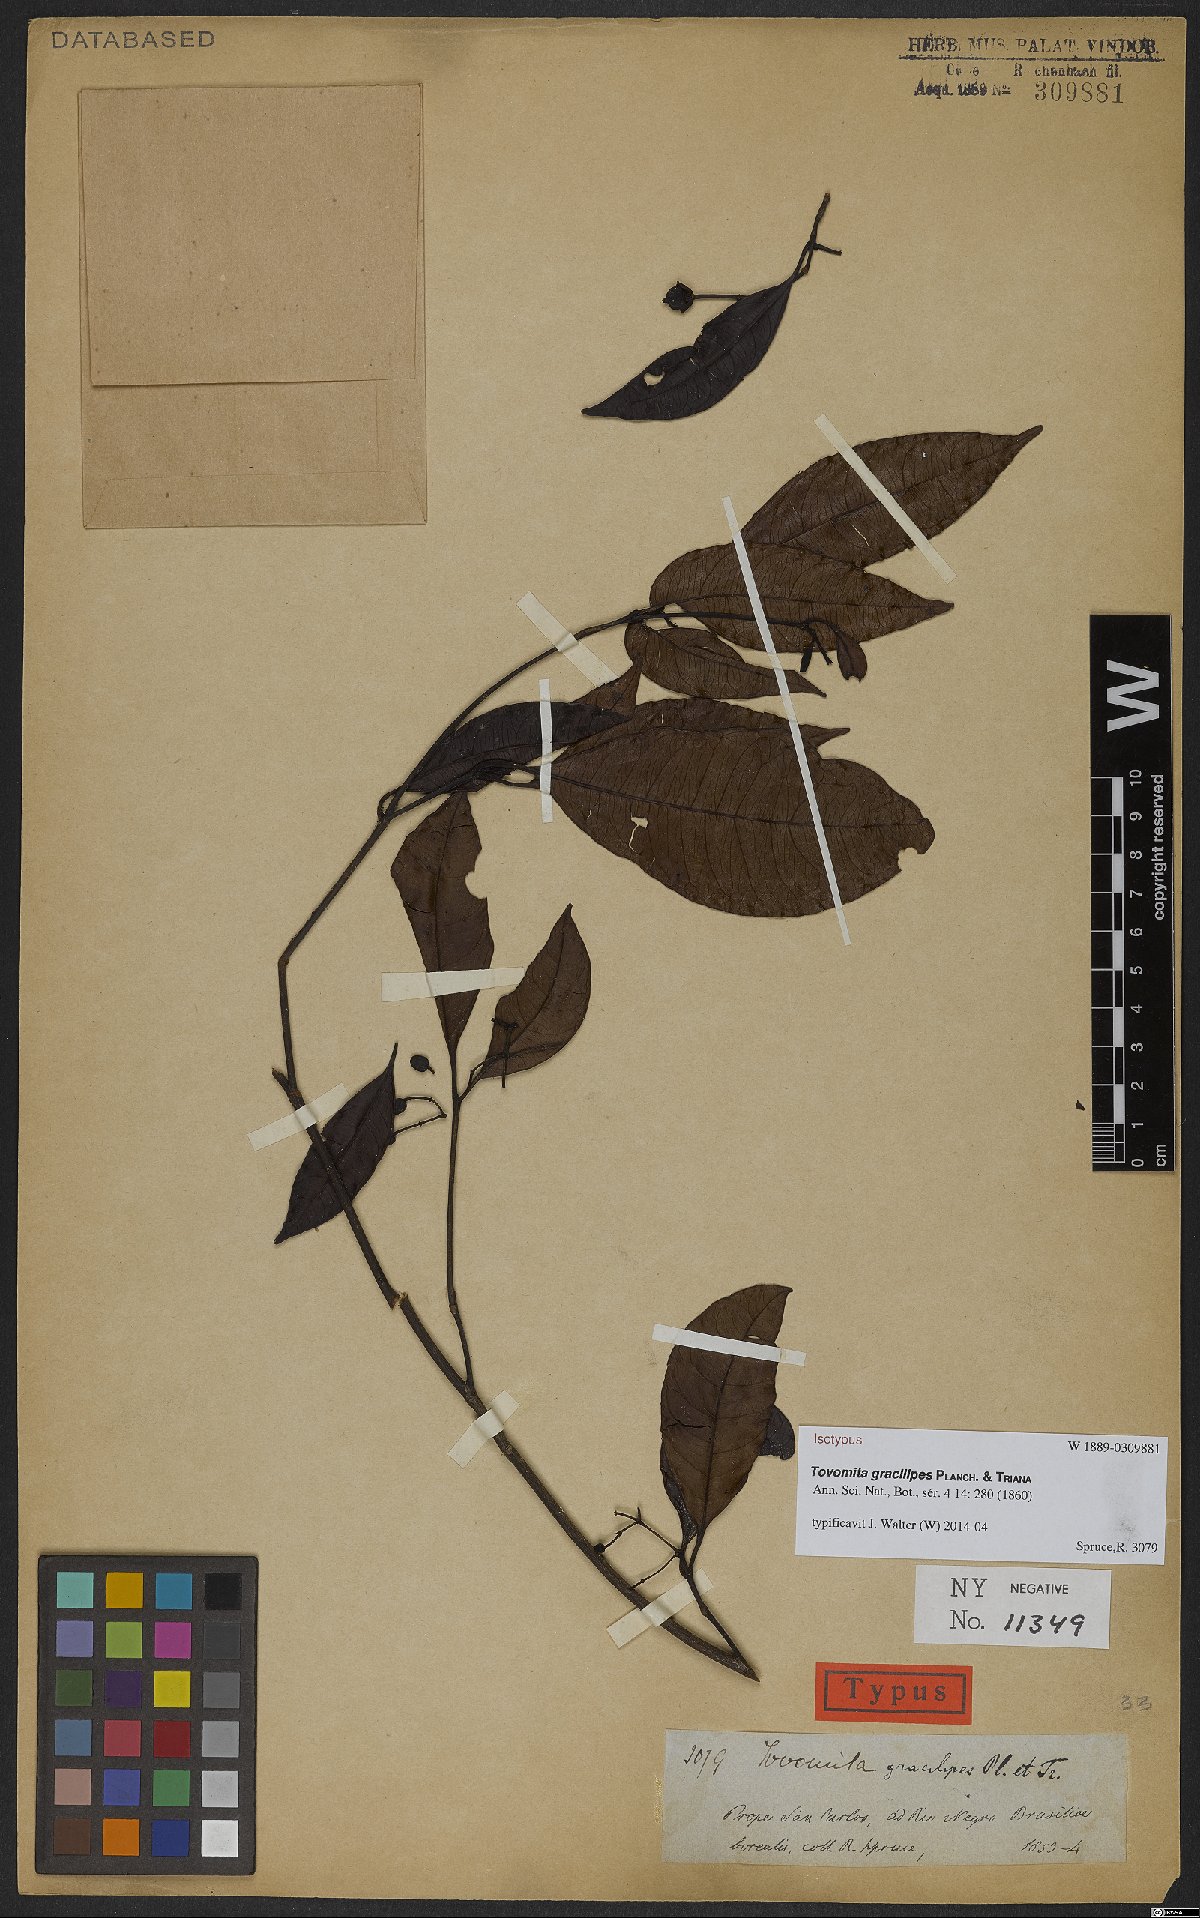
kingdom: Plantae
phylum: Tracheophyta
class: Magnoliopsida
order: Malpighiales
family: Clusiaceae
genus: Tovomita
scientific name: Tovomita gracilipes
